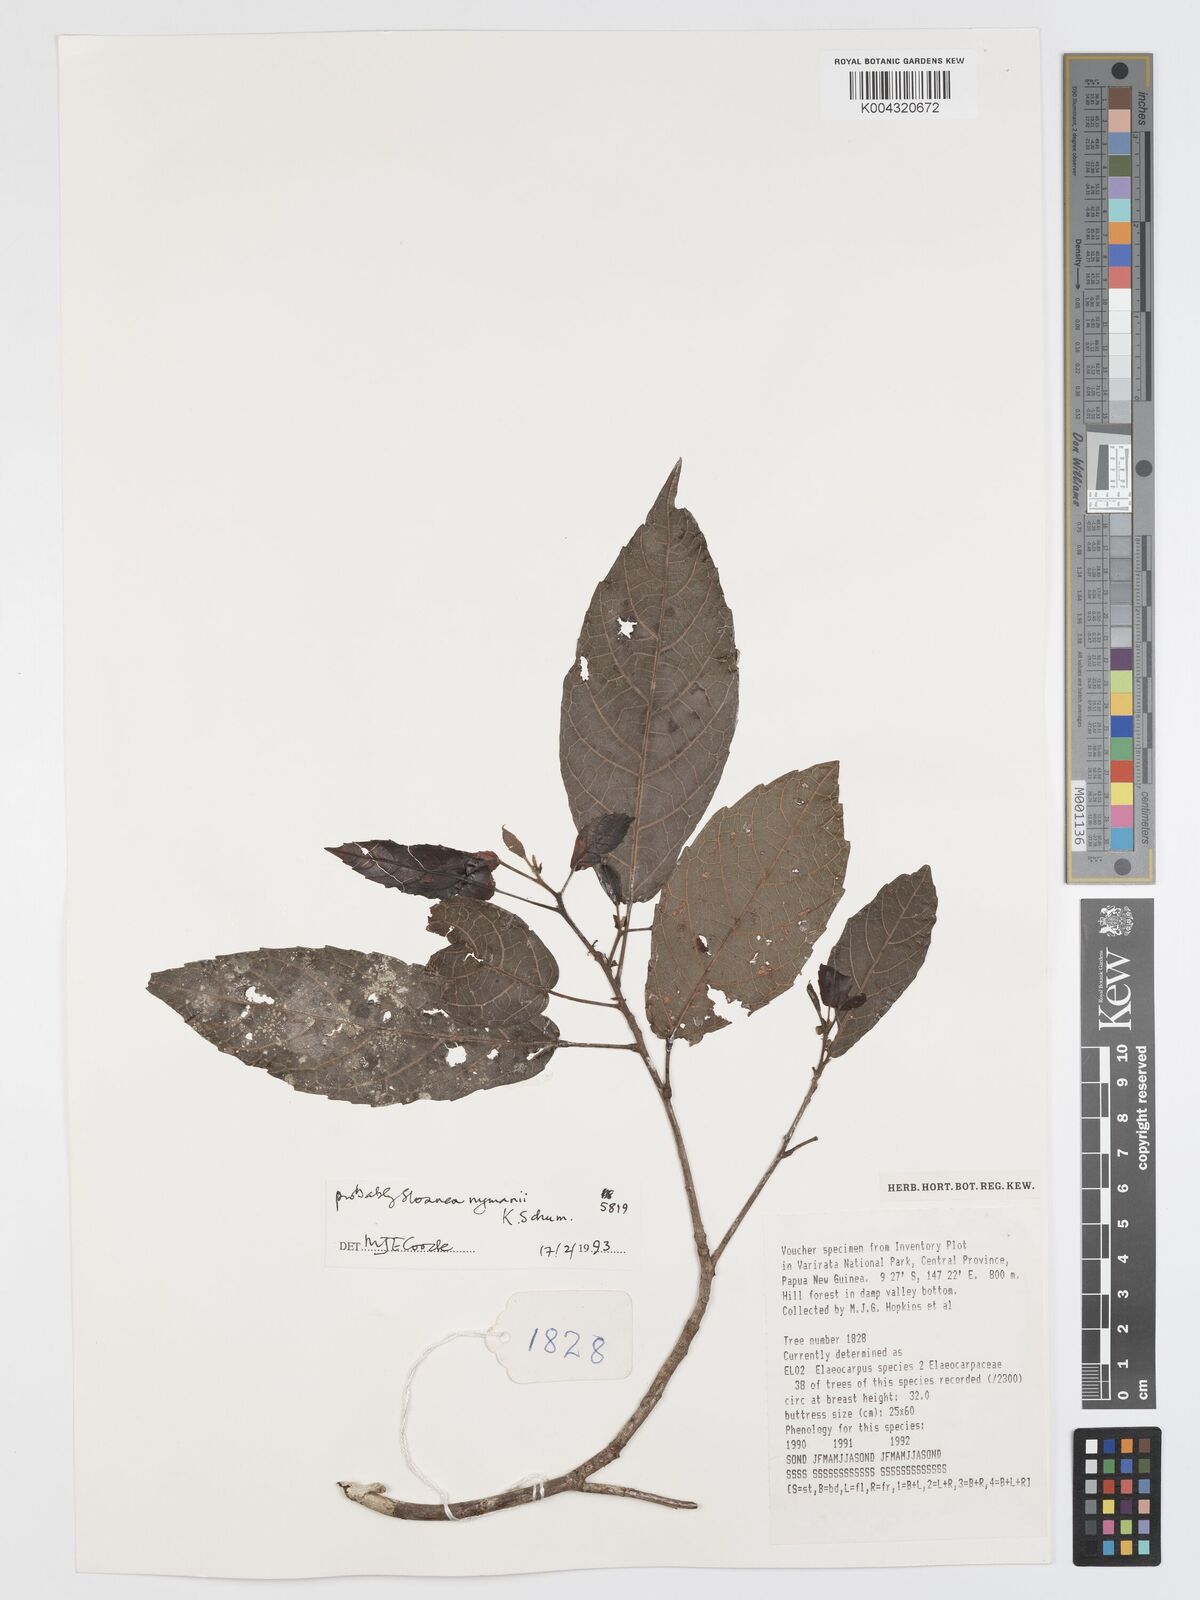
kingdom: Plantae
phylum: Tracheophyta
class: Magnoliopsida
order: Oxalidales
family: Elaeocarpaceae
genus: Sloanea
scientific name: Sloanea nymanii
